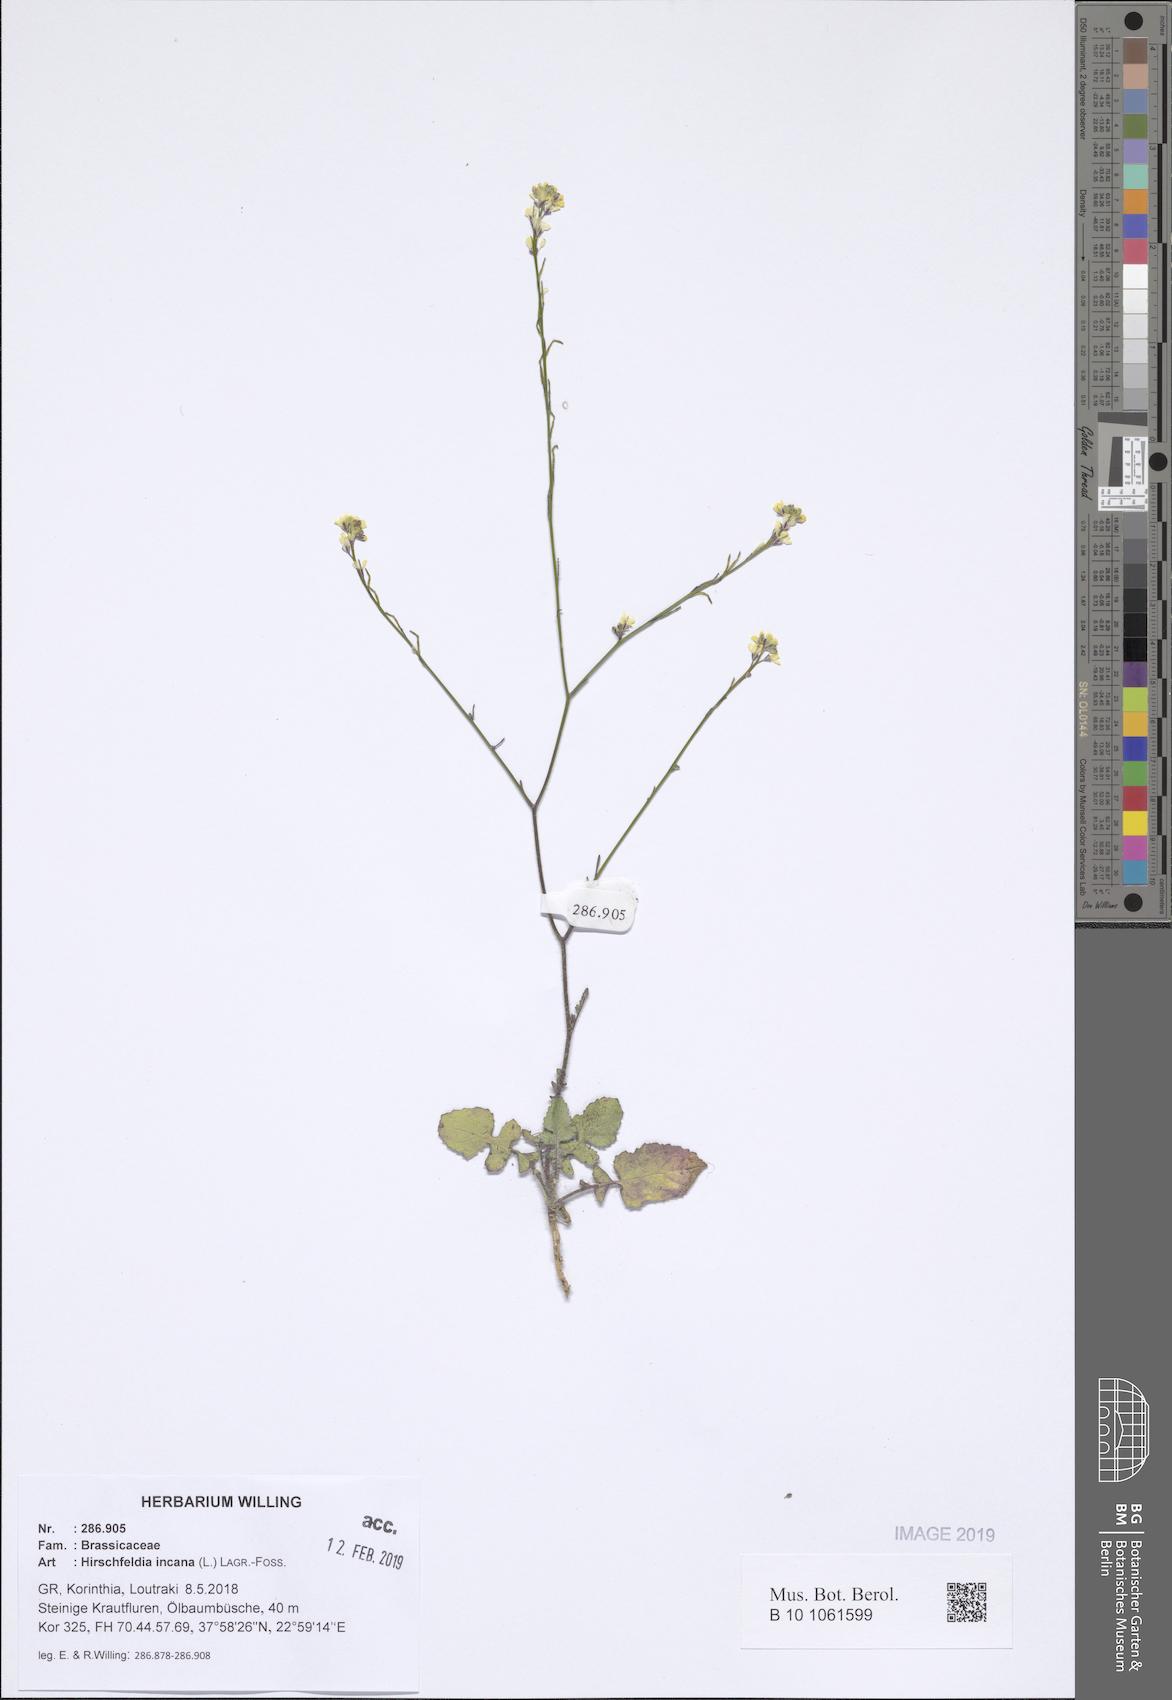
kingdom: Plantae
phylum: Tracheophyta
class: Magnoliopsida
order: Brassicales
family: Brassicaceae
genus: Hirschfeldia
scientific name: Hirschfeldia incana
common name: Hoary mustard
